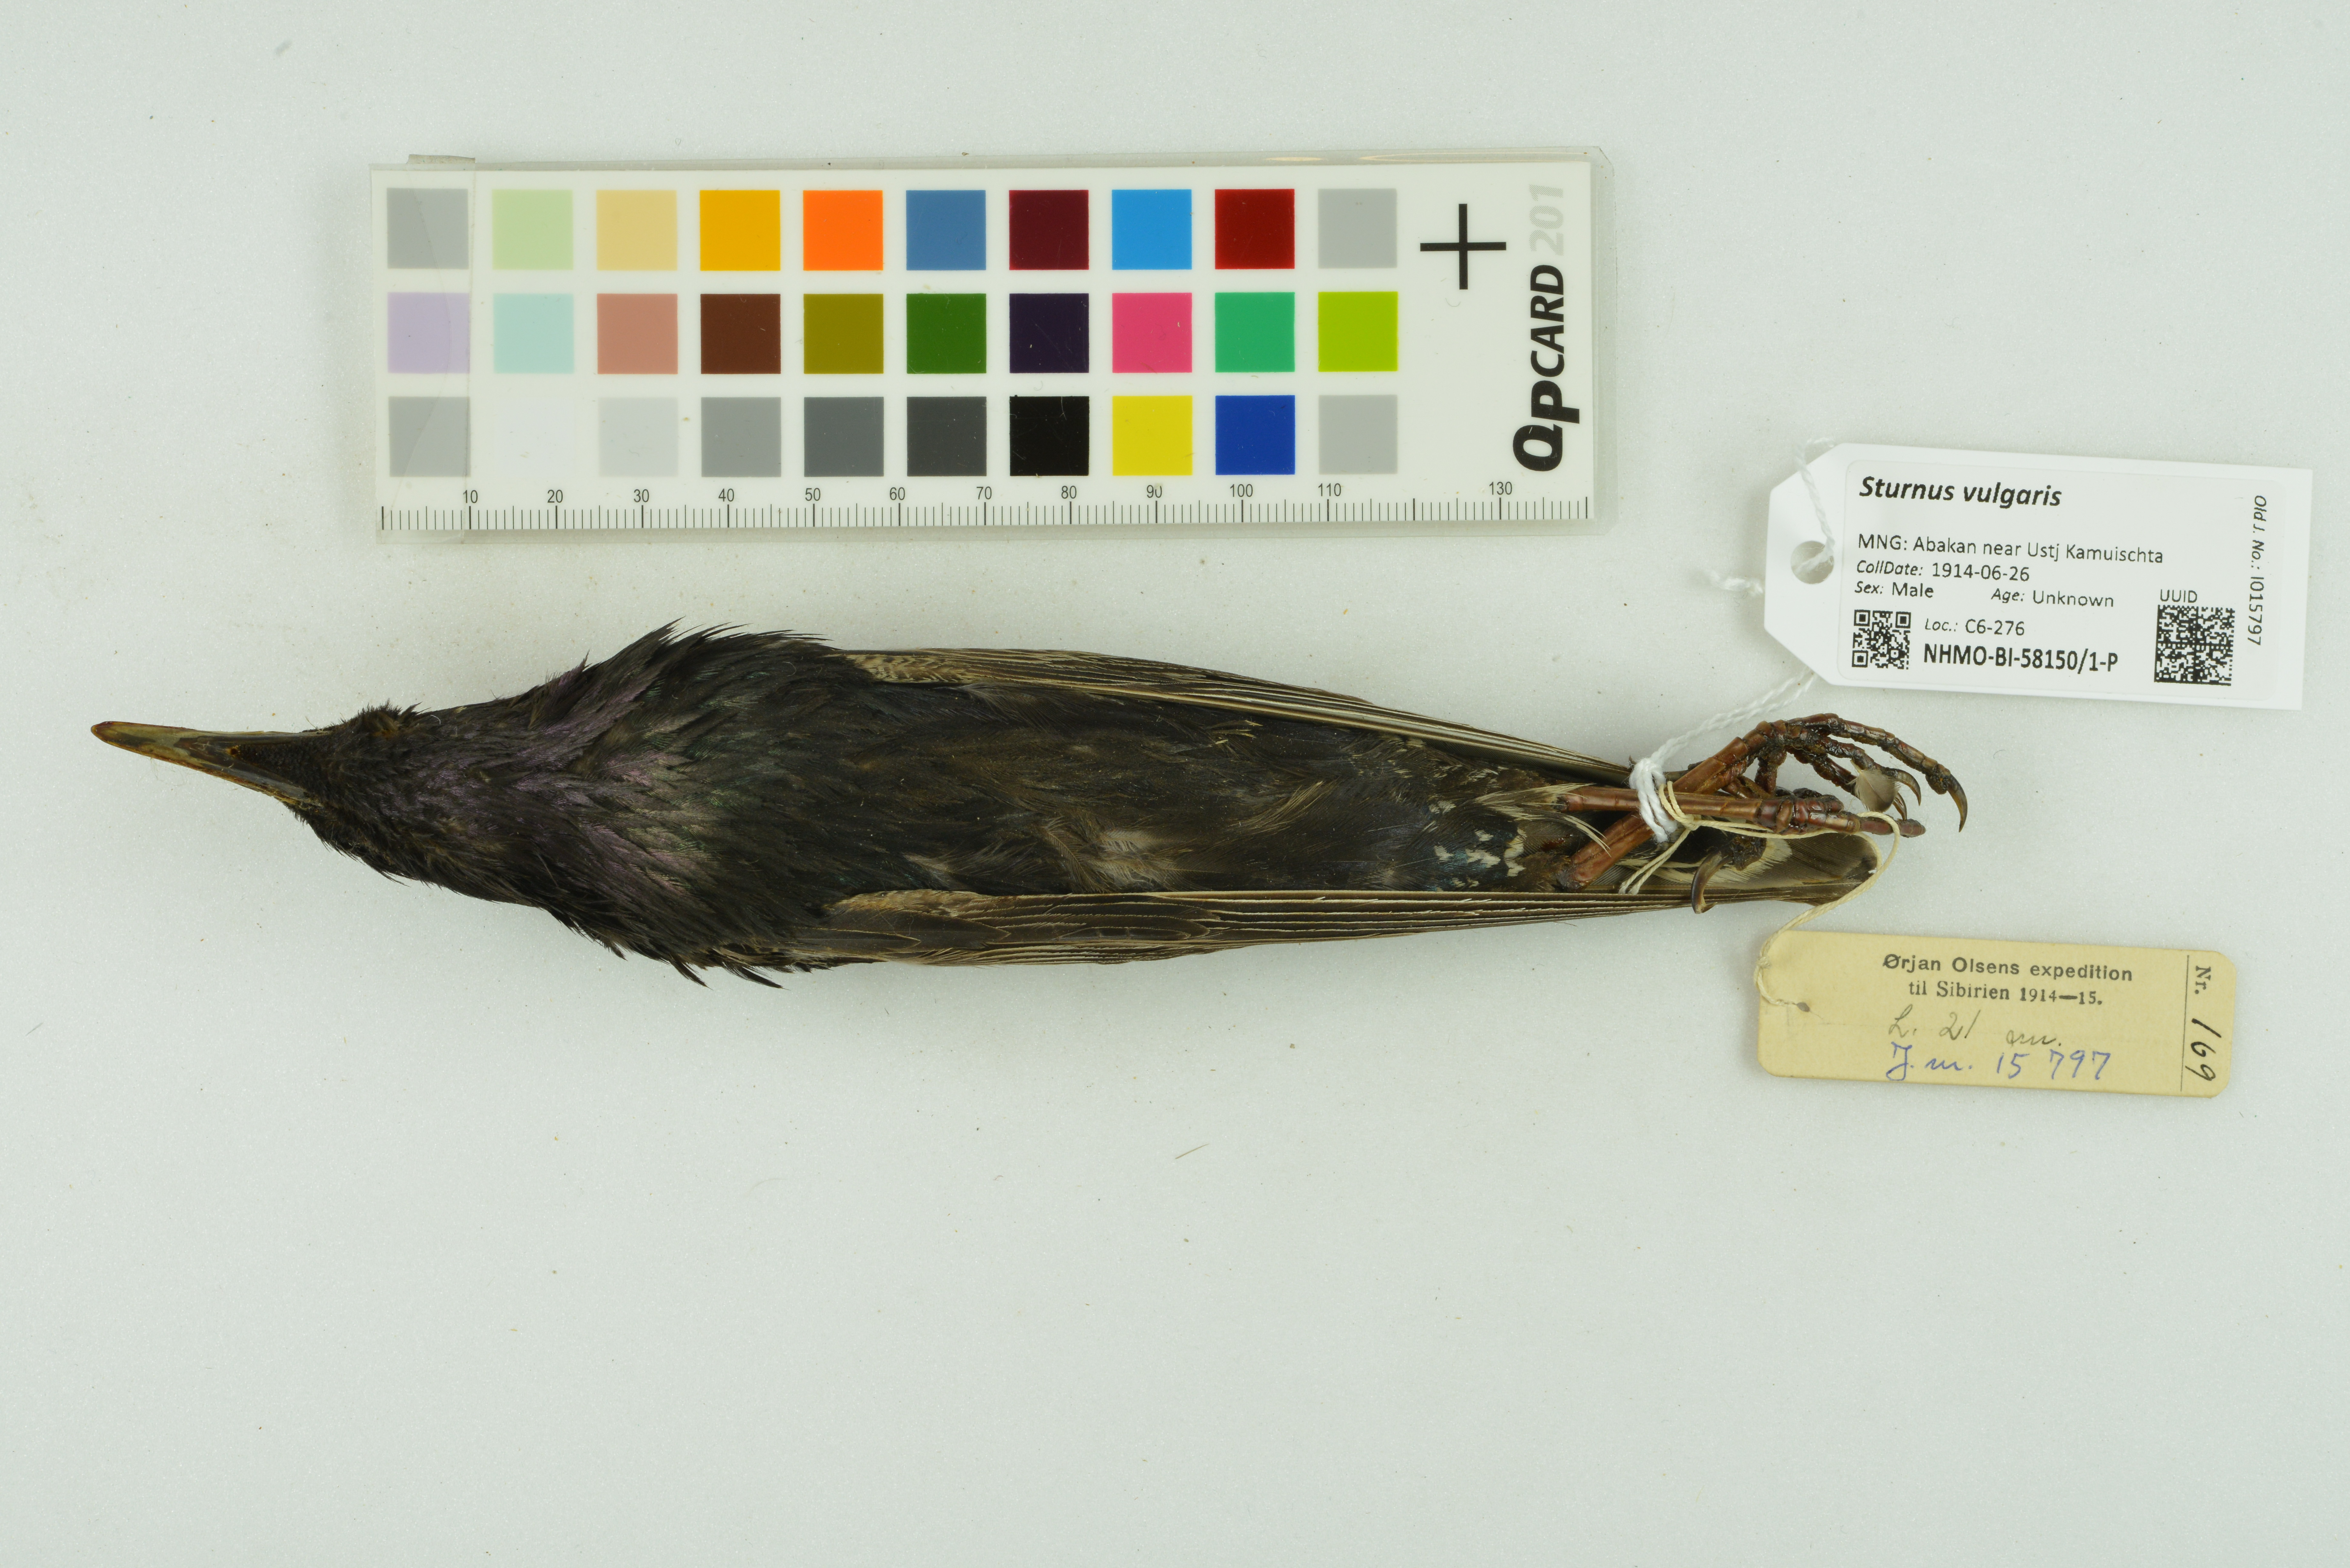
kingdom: Animalia
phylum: Chordata
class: Aves
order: Passeriformes
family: Sturnidae
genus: Sturnus
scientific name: Sturnus vulgaris
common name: Common starling
